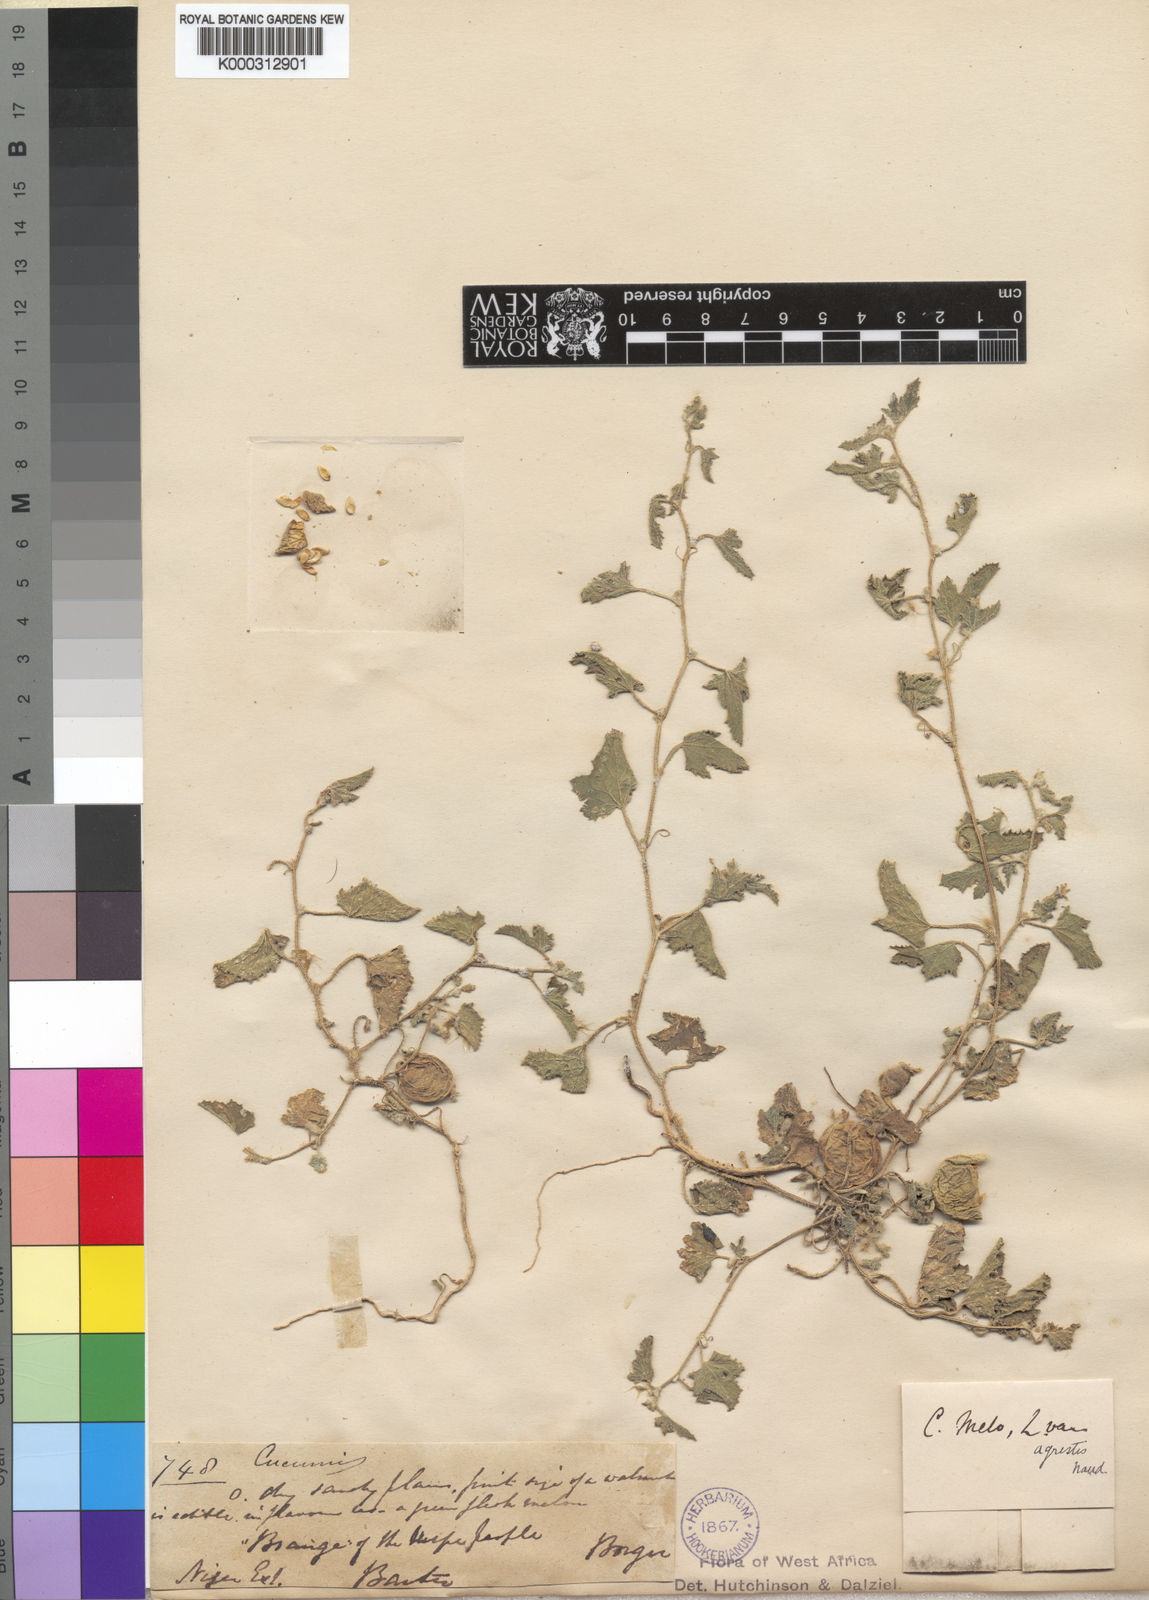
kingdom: Plantae
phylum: Tracheophyta
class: Magnoliopsida
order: Cucurbitales
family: Cucurbitaceae
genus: Cucumis
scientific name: Cucumis melo
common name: Melon
